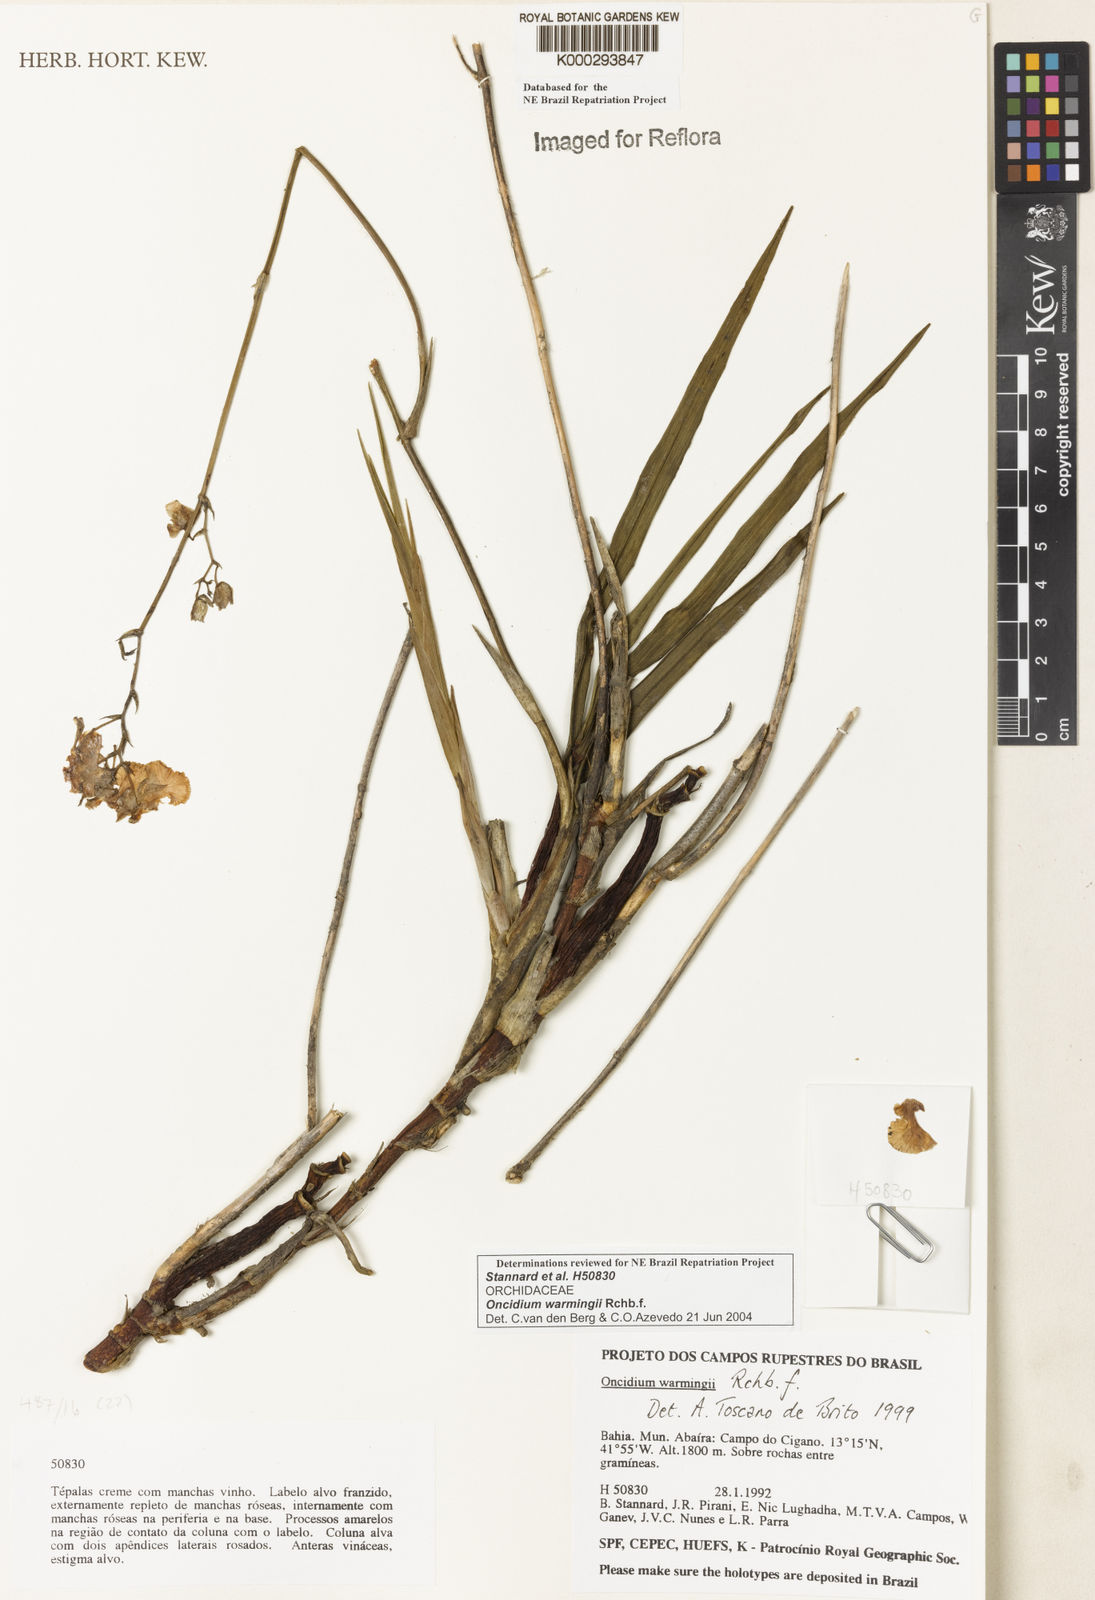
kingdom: Plantae
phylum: Tracheophyta
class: Liliopsida
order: Asparagales
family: Orchidaceae
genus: Gomesa
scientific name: Gomesa warmingii
